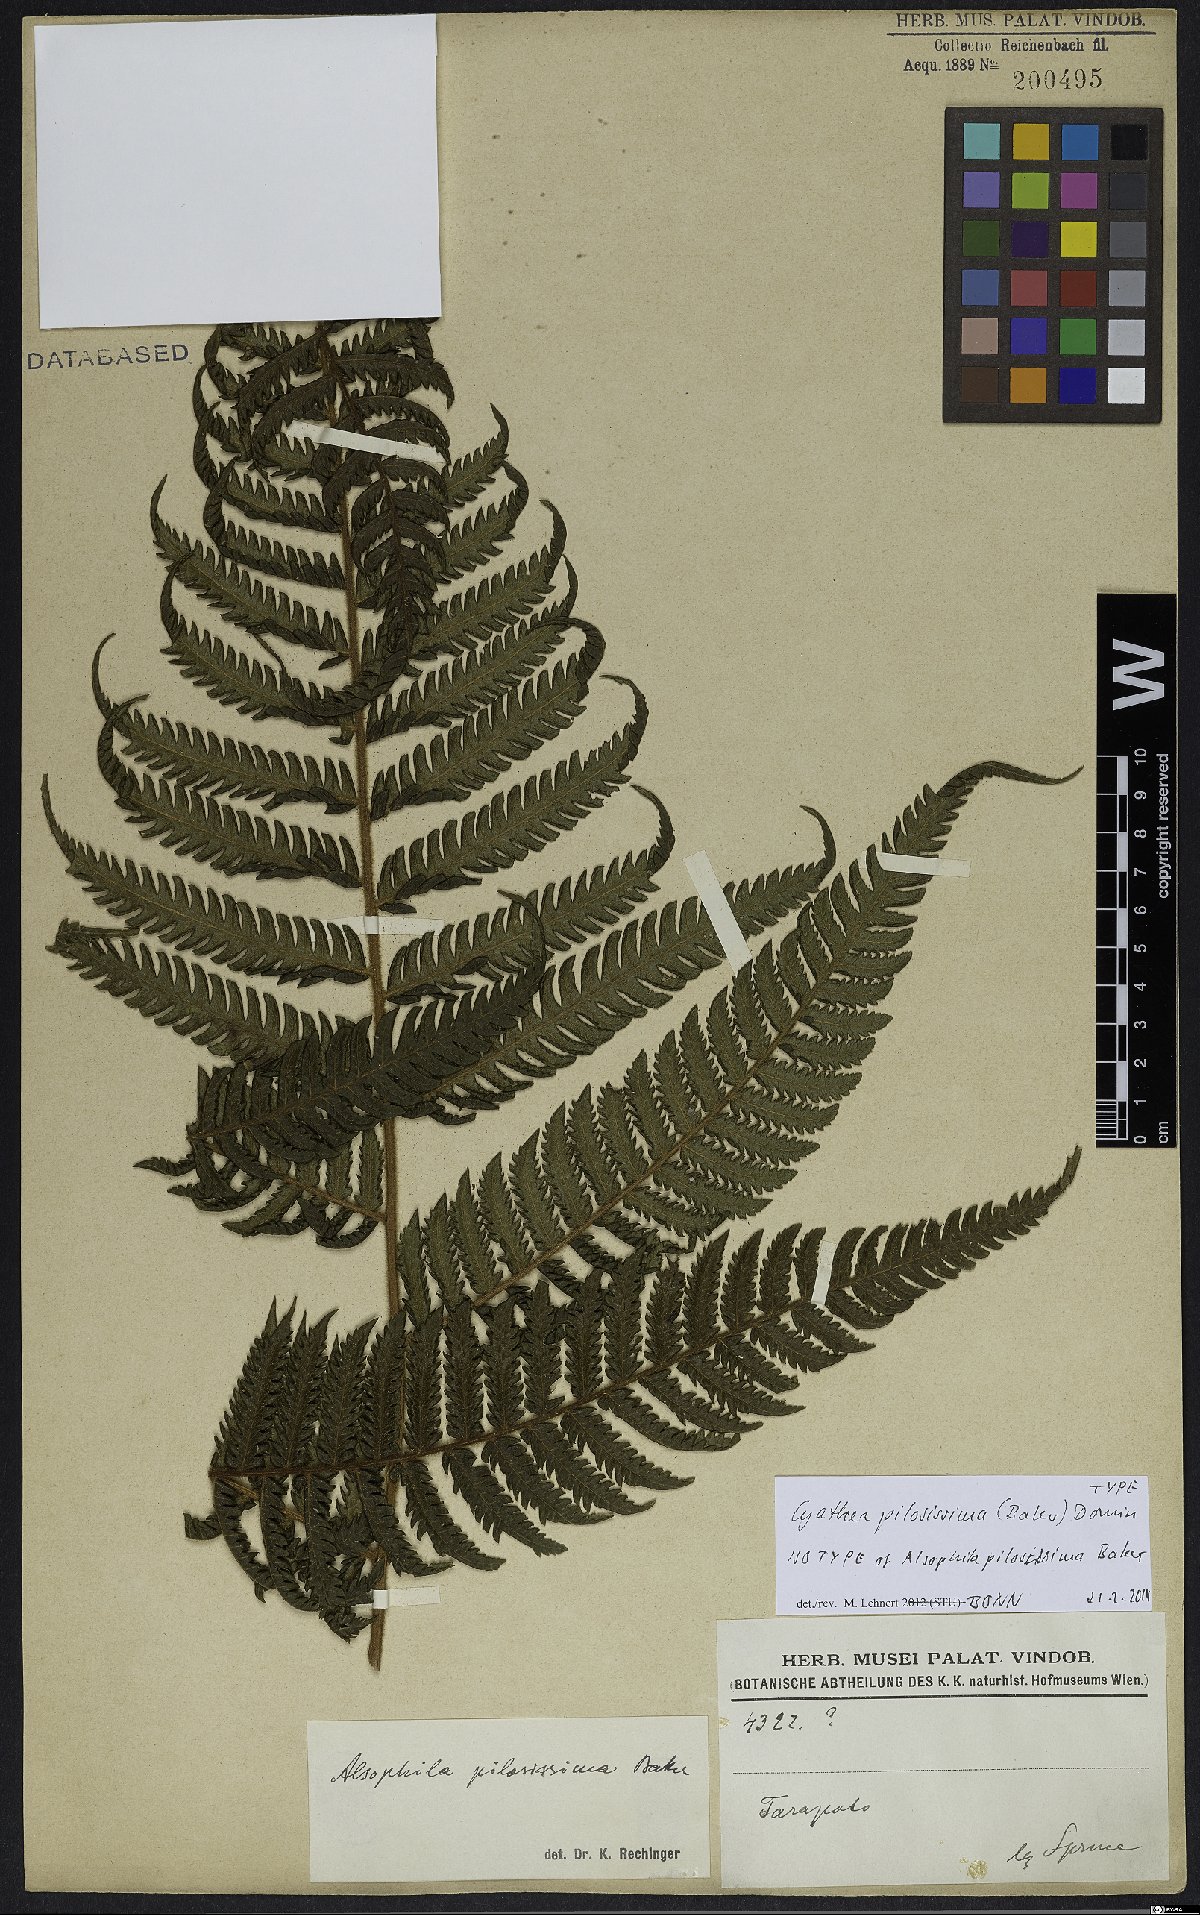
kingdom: Plantae
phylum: Tracheophyta
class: Polypodiopsida
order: Cyatheales
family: Cyatheaceae
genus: Cyathea
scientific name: Cyathea pilosissima
